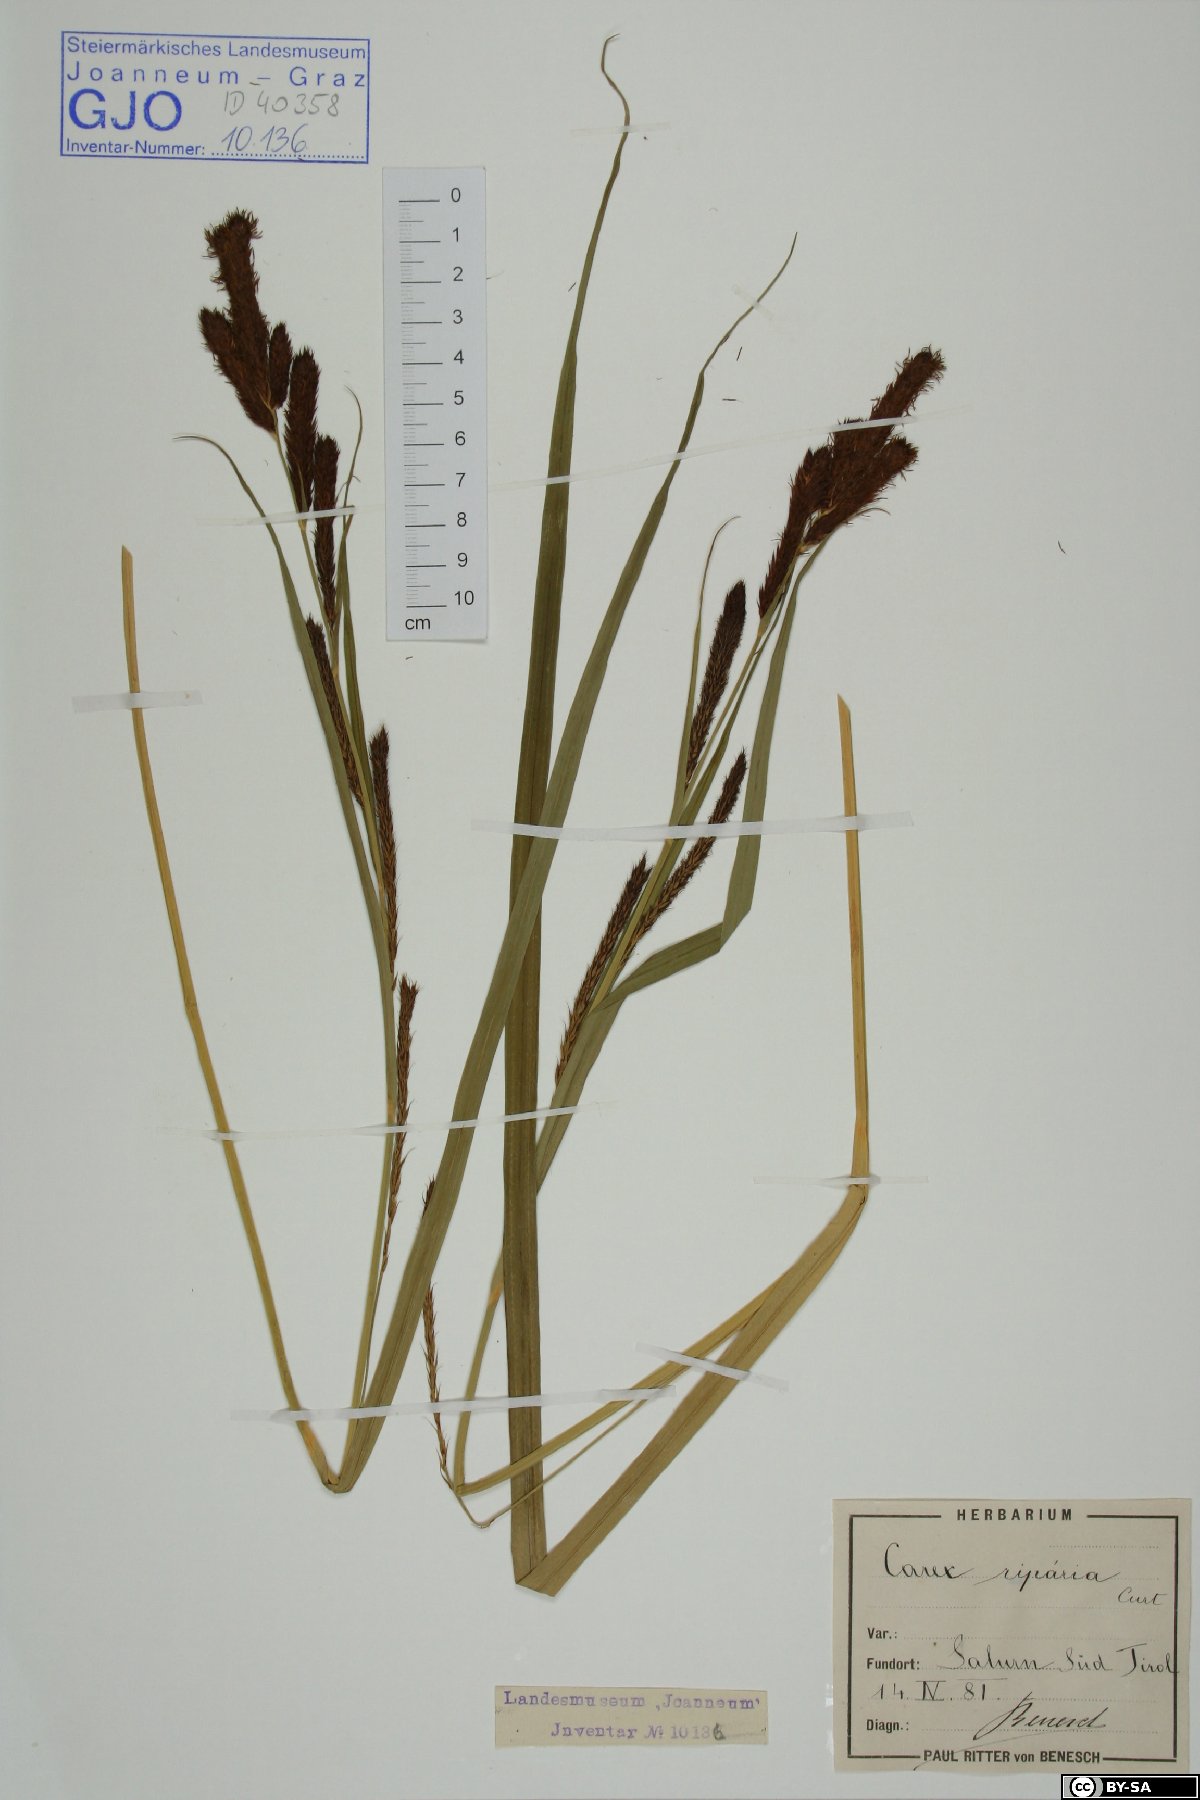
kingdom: Plantae
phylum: Tracheophyta
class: Liliopsida
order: Poales
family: Cyperaceae
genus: Carex
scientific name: Carex riparia
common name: Greater pond-sedge
